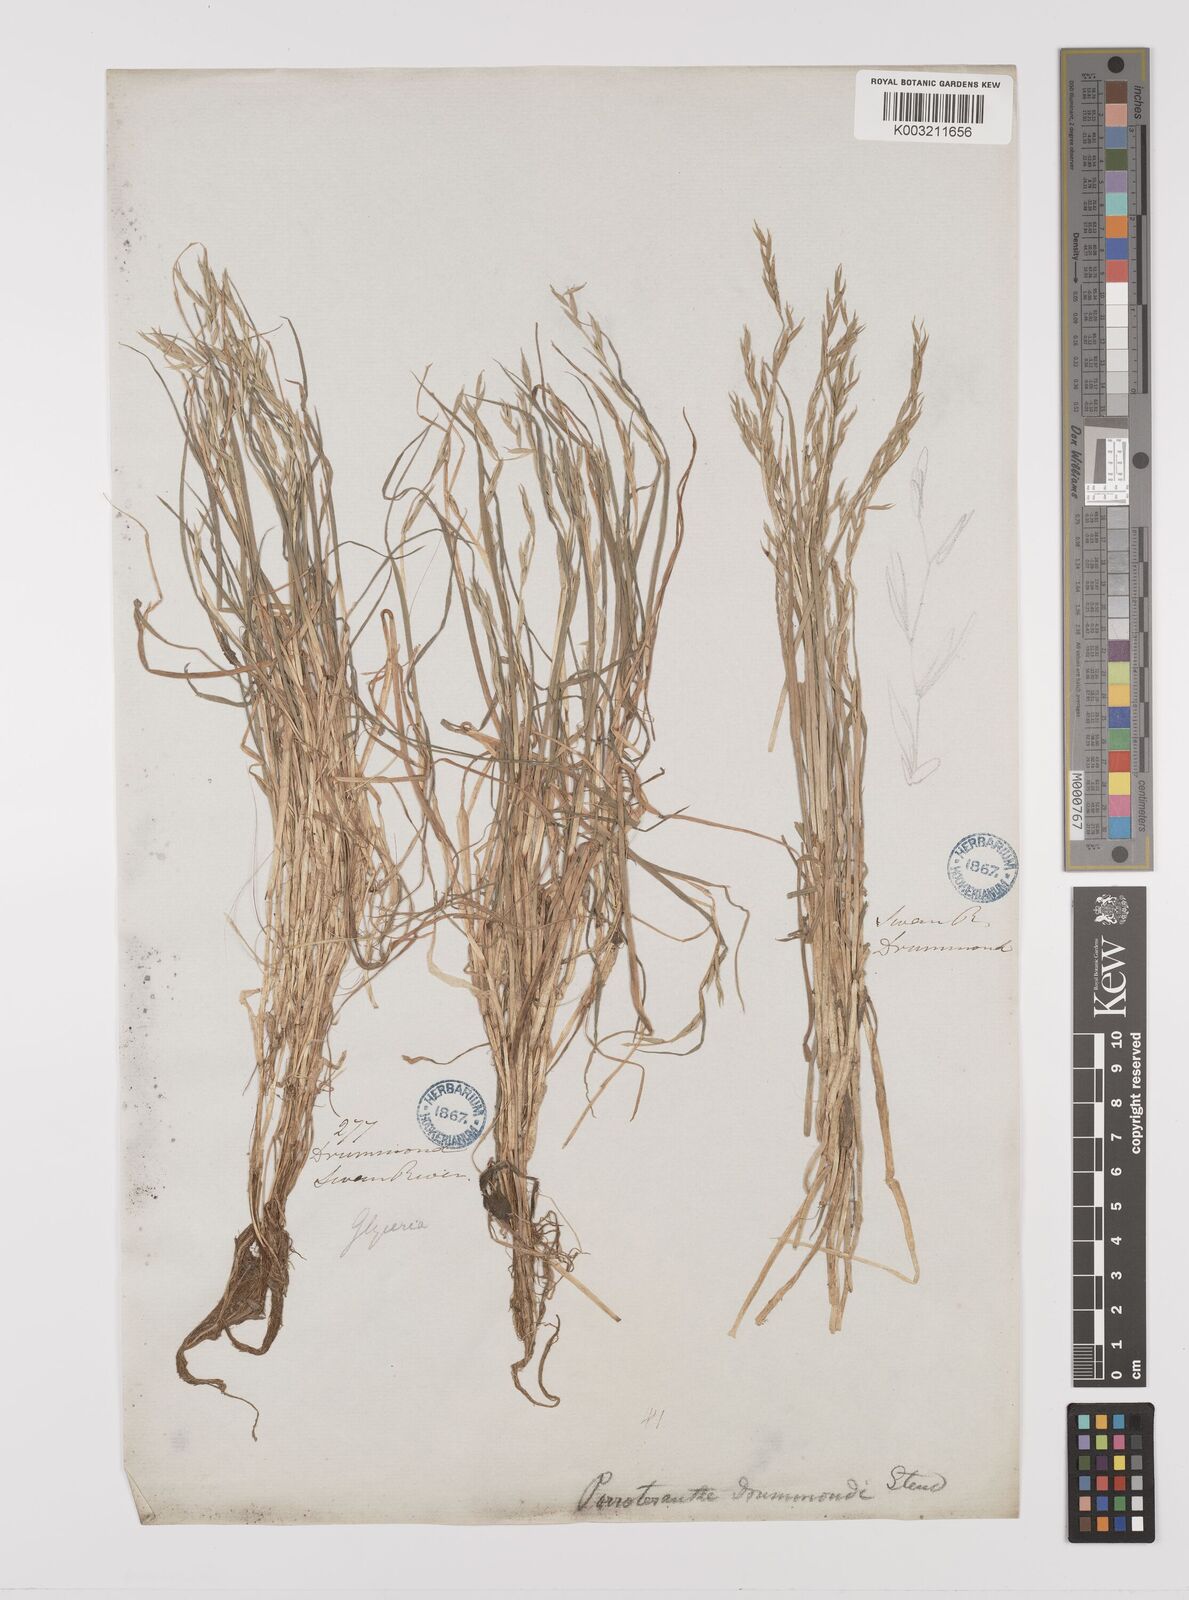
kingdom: Plantae
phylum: Tracheophyta
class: Liliopsida
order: Poales
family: Poaceae
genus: Glyceria
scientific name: Glyceria drummondii
